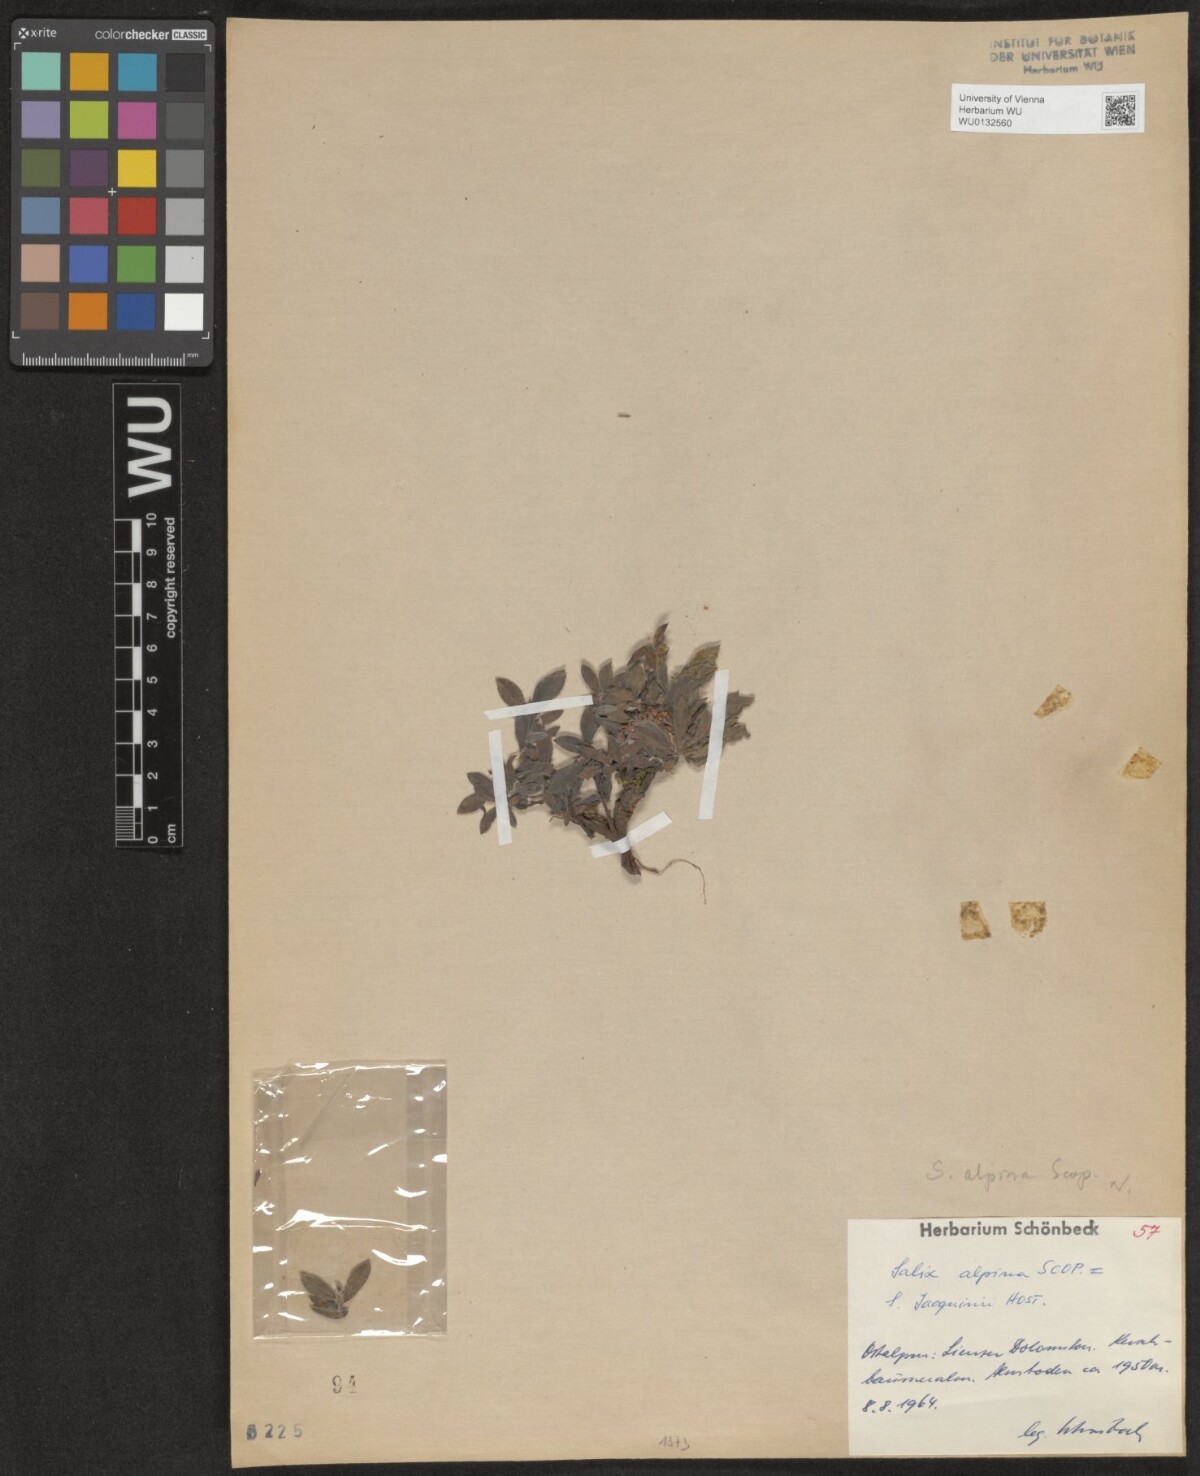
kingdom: Plantae
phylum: Tracheophyta
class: Magnoliopsida
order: Malpighiales
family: Salicaceae
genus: Salix
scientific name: Salix alpina
